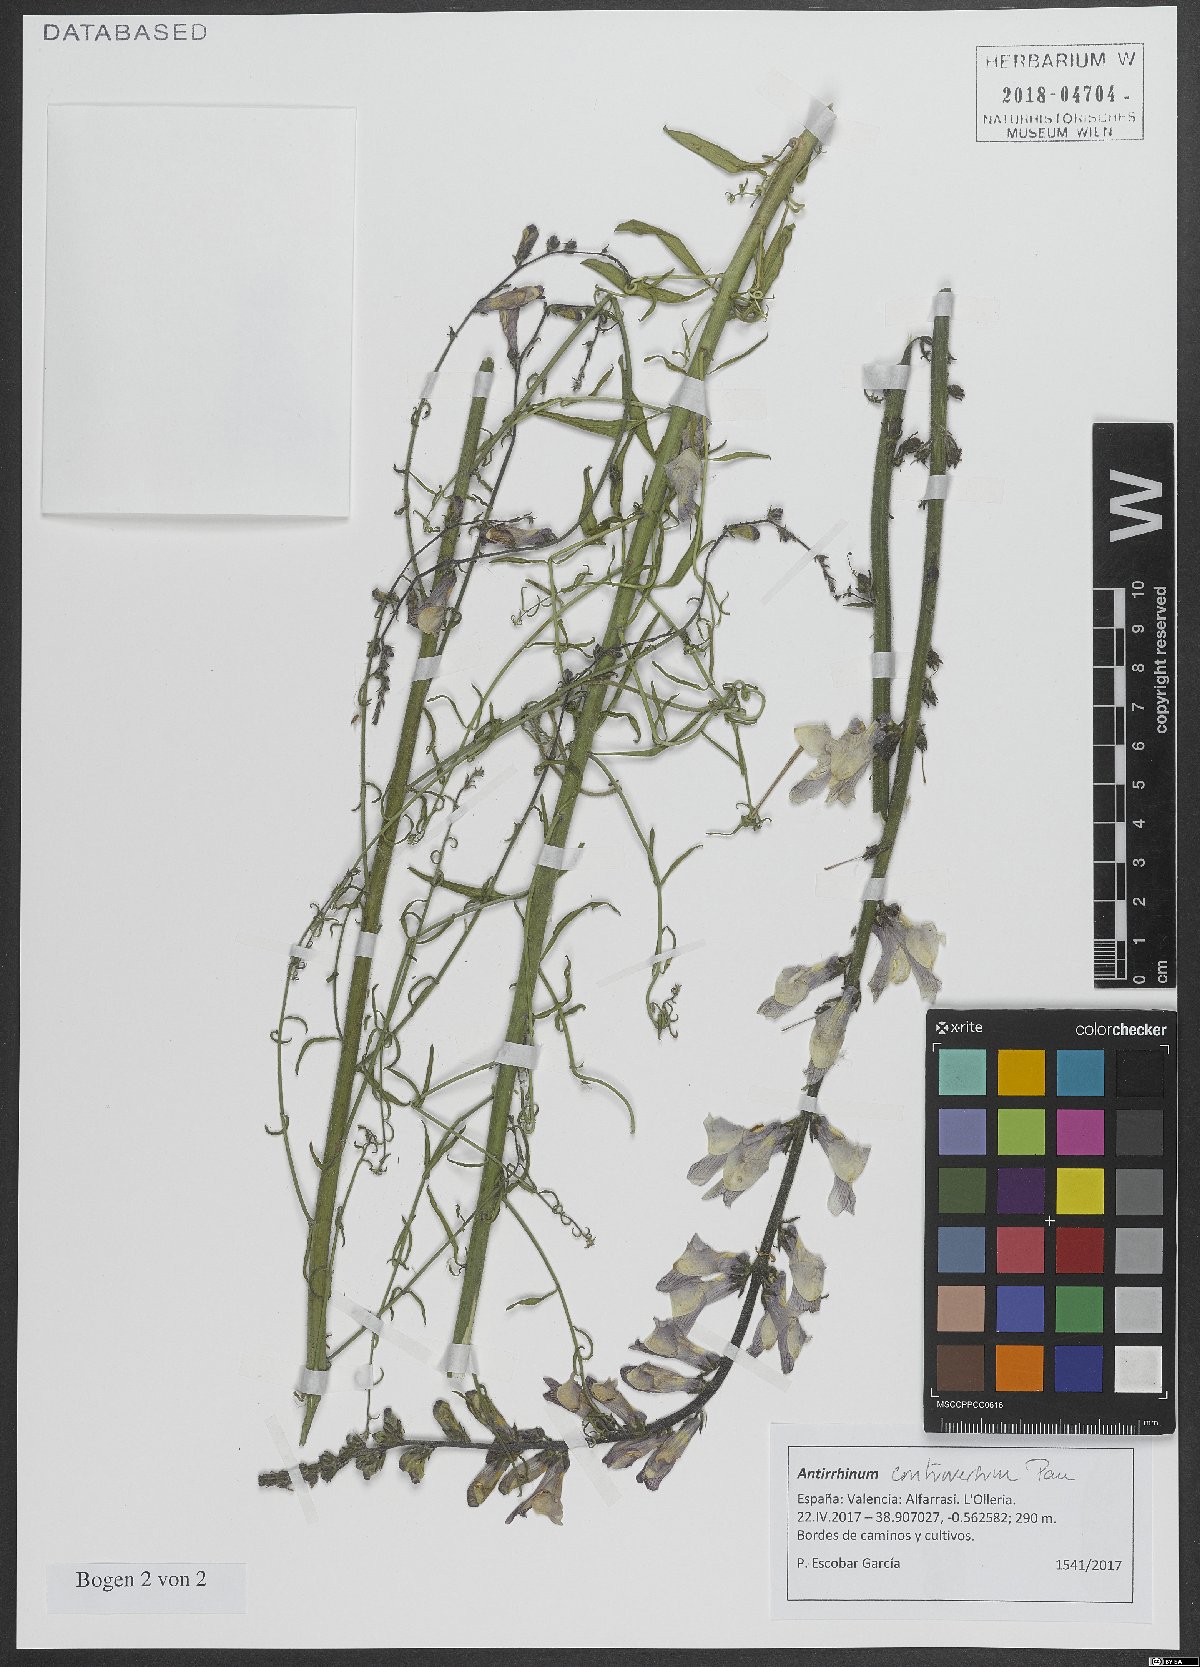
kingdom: Plantae
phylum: Tracheophyta
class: Magnoliopsida
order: Lamiales
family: Plantaginaceae
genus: Antirrhinum
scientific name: Antirrhinum controversum
